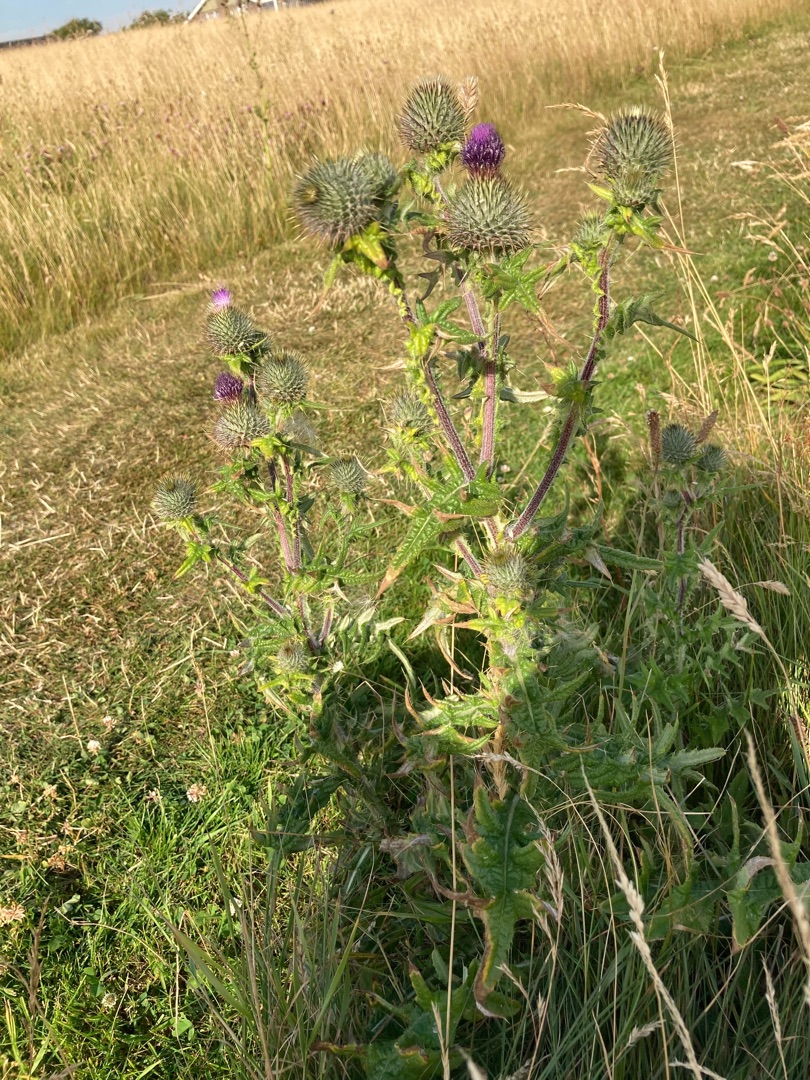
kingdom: Plantae
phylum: Tracheophyta
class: Magnoliopsida
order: Asterales
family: Asteraceae
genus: Cirsium
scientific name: Cirsium vulgare
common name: Horse-tidsel
